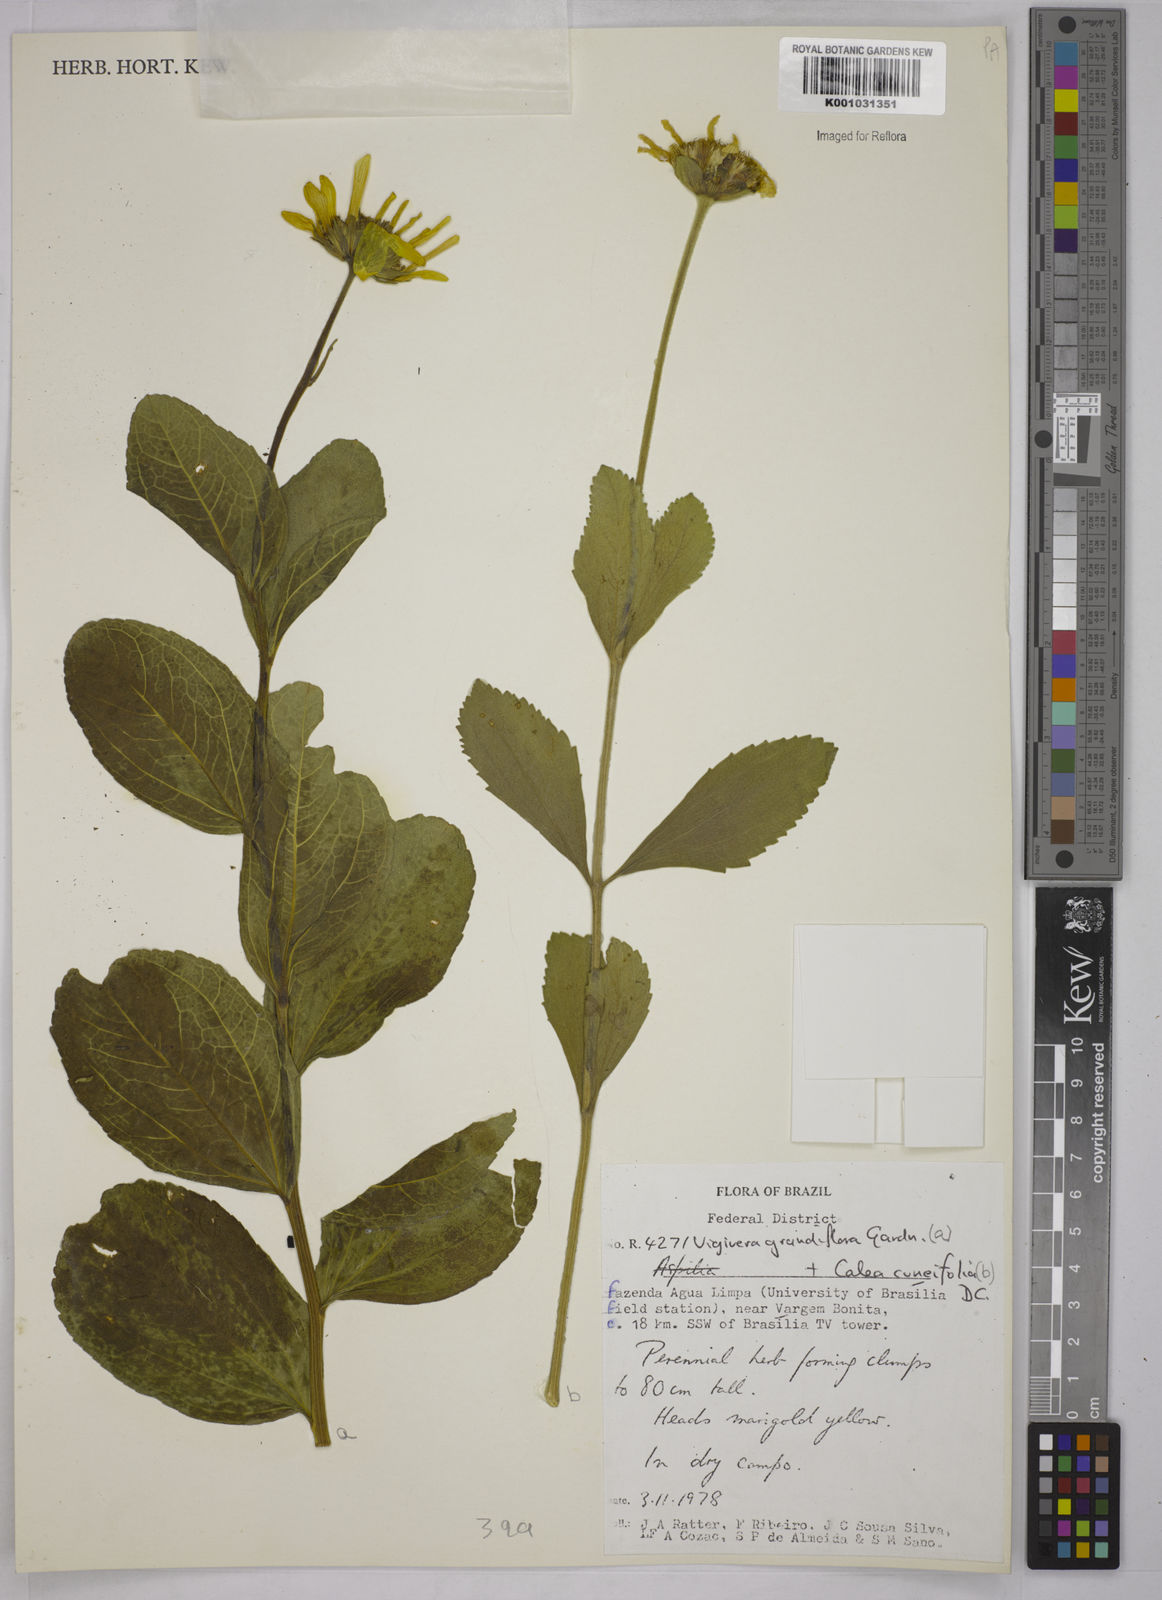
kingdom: Plantae
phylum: Tracheophyta
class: Magnoliopsida
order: Asterales
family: Asteraceae
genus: Aldama
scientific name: Aldama grandiflora
